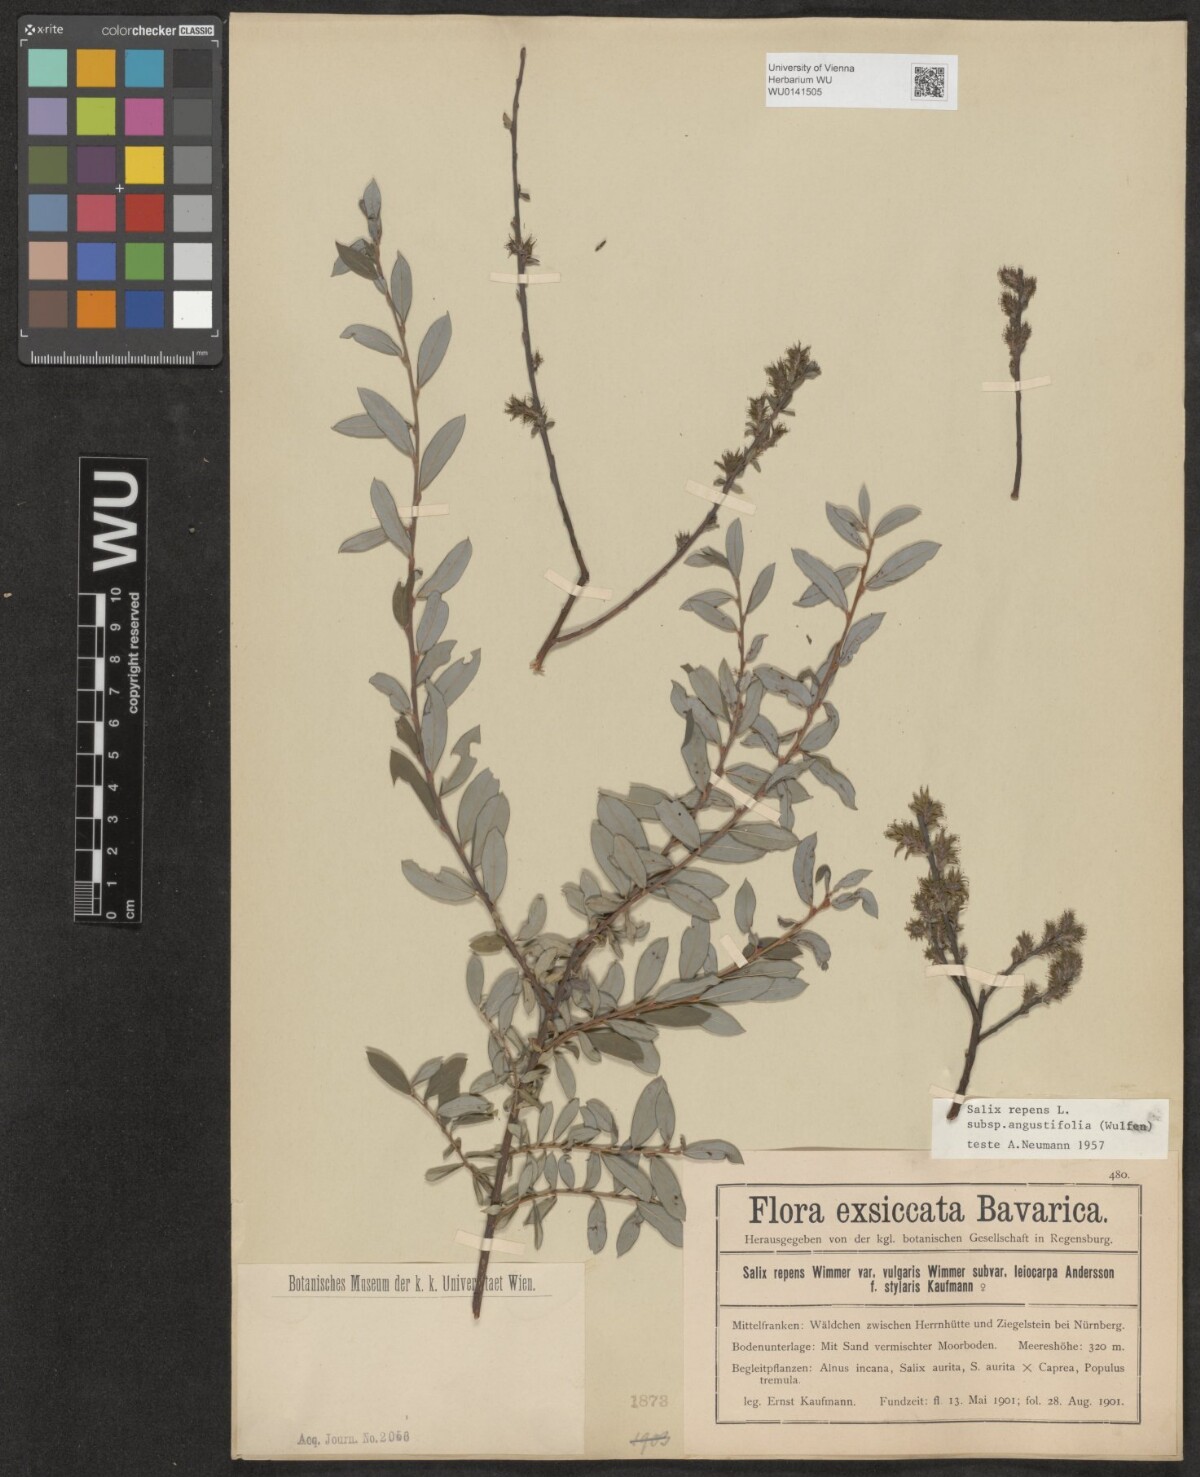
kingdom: Plantae
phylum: Tracheophyta
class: Magnoliopsida
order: Malpighiales
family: Salicaceae
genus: Salix
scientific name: Salix rosmarinifolia
